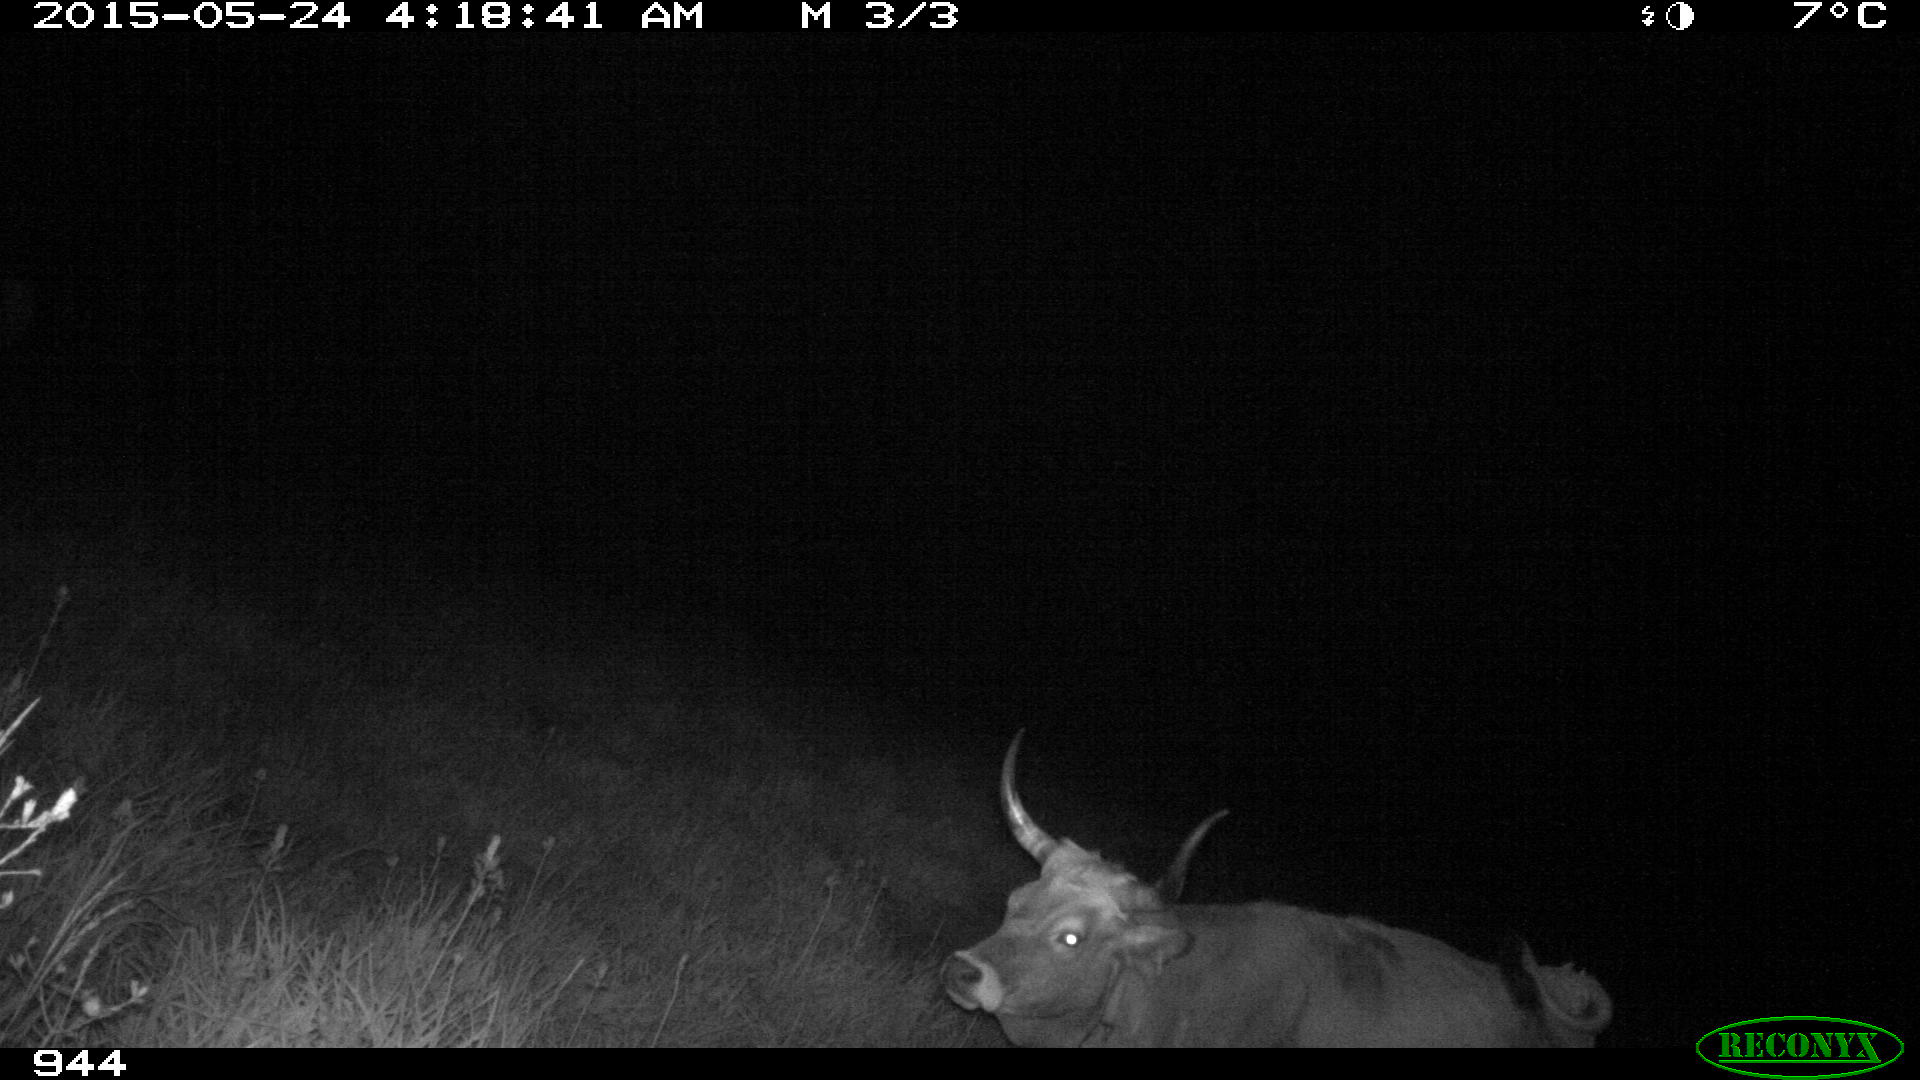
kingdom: Animalia
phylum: Chordata
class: Mammalia
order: Artiodactyla
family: Bovidae
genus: Bos
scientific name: Bos taurus
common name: Domesticated cattle
